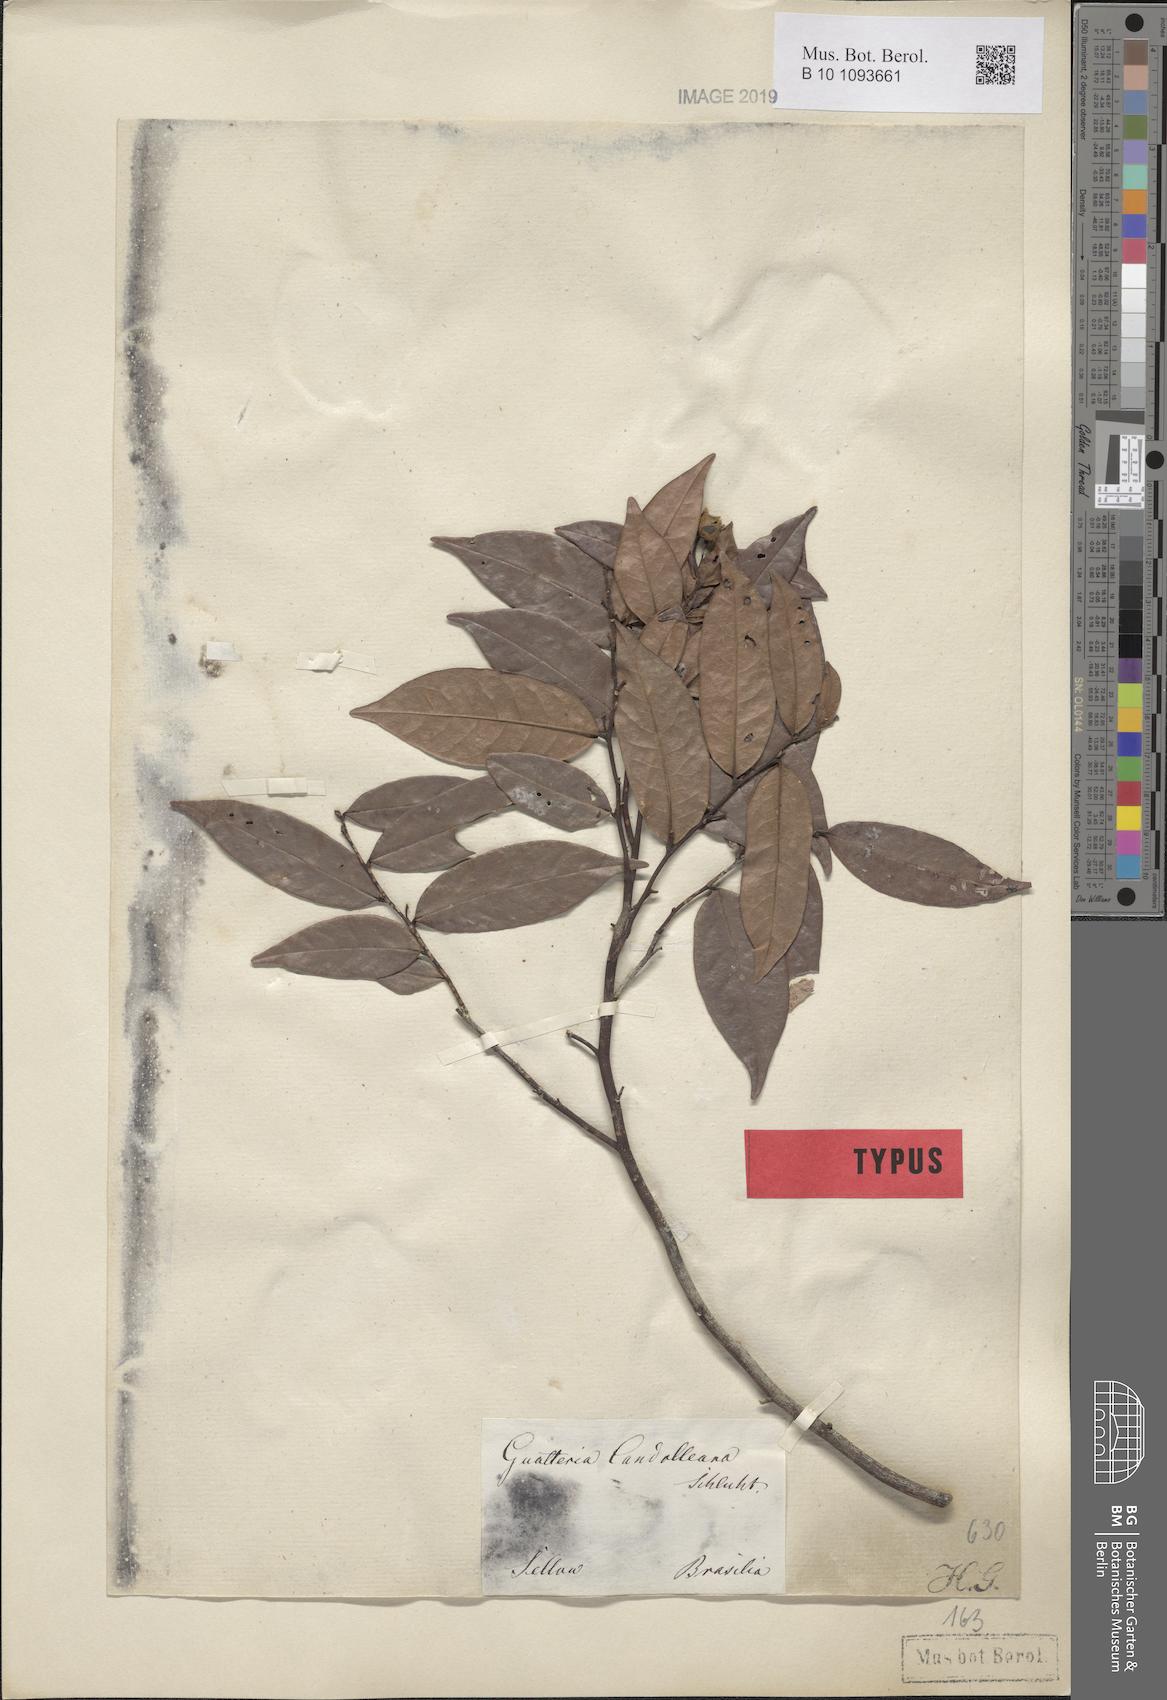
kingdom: Plantae
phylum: Tracheophyta
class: Magnoliopsida
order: Magnoliales
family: Annonaceae
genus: Guatteria
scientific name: Guatteria candolleana
